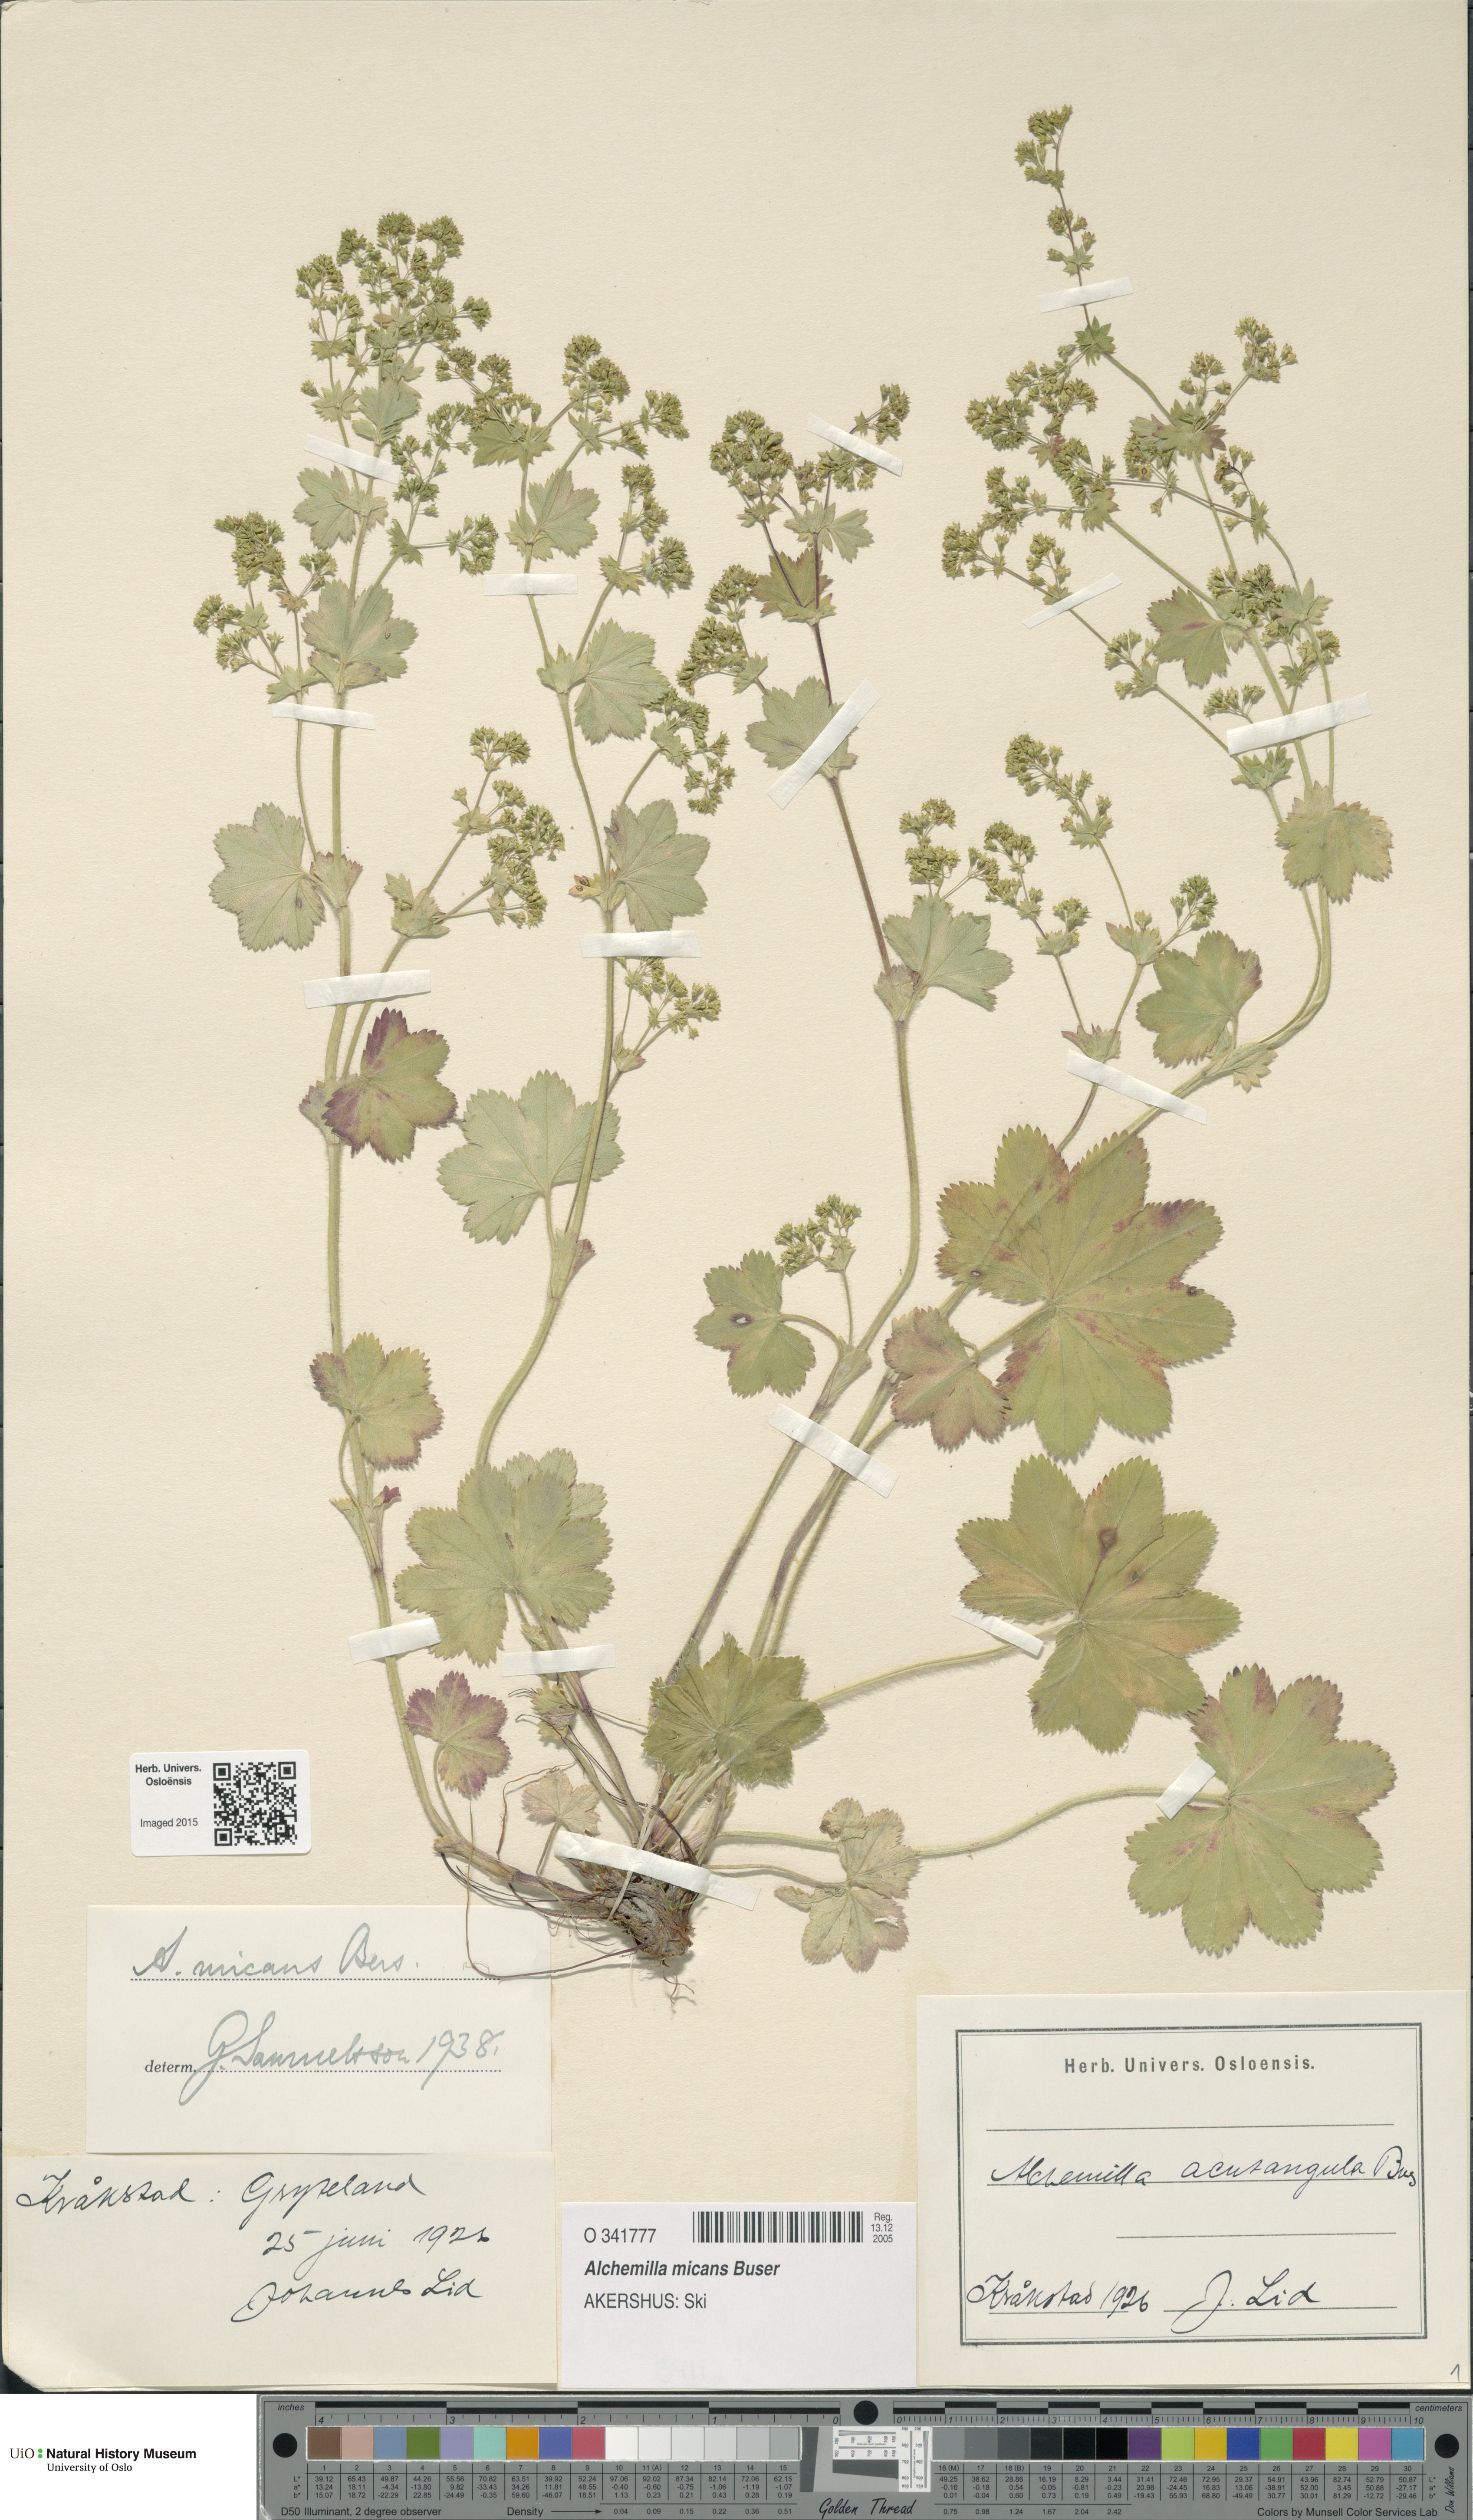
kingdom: Plantae
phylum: Tracheophyta
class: Magnoliopsida
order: Rosales
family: Rosaceae
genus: Alchemilla
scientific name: Alchemilla micans
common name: Gleaming lady's mantle
